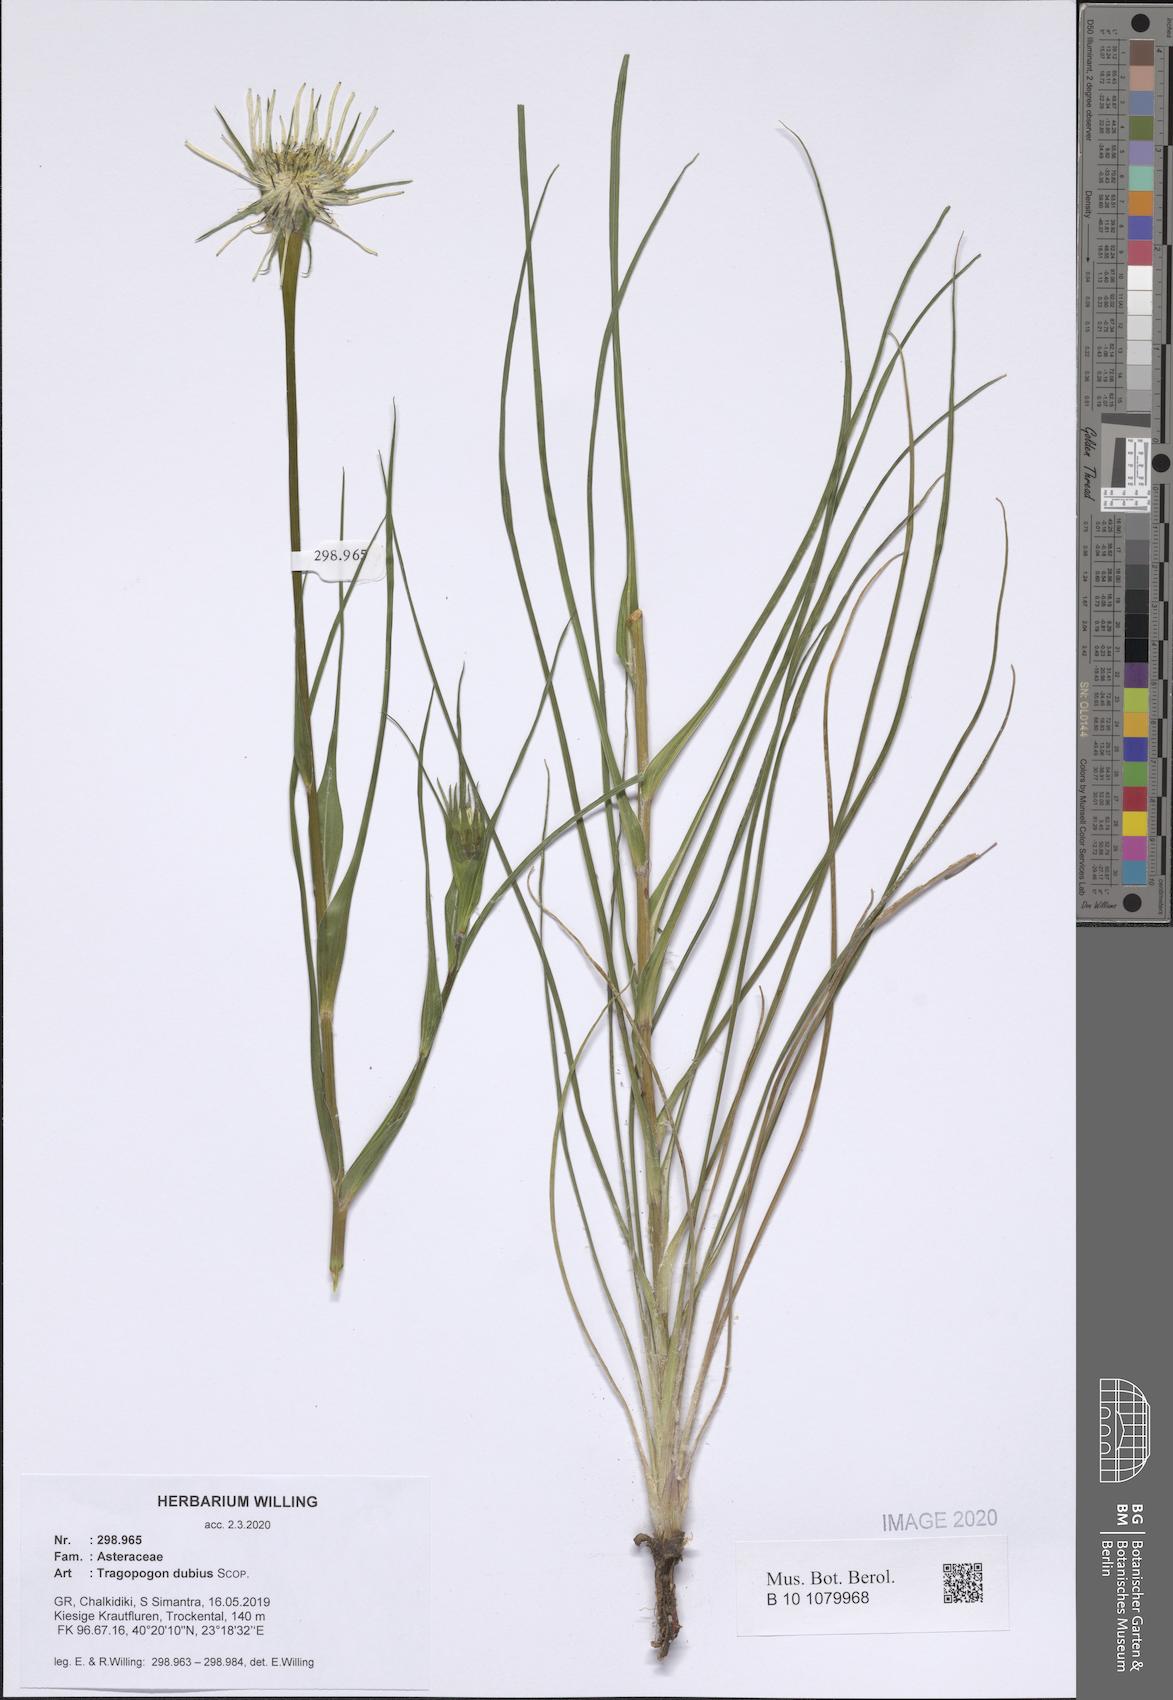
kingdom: Plantae
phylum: Tracheophyta
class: Magnoliopsida
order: Asterales
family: Asteraceae
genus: Tragopogon
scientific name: Tragopogon dubius
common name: Yellow salsify
